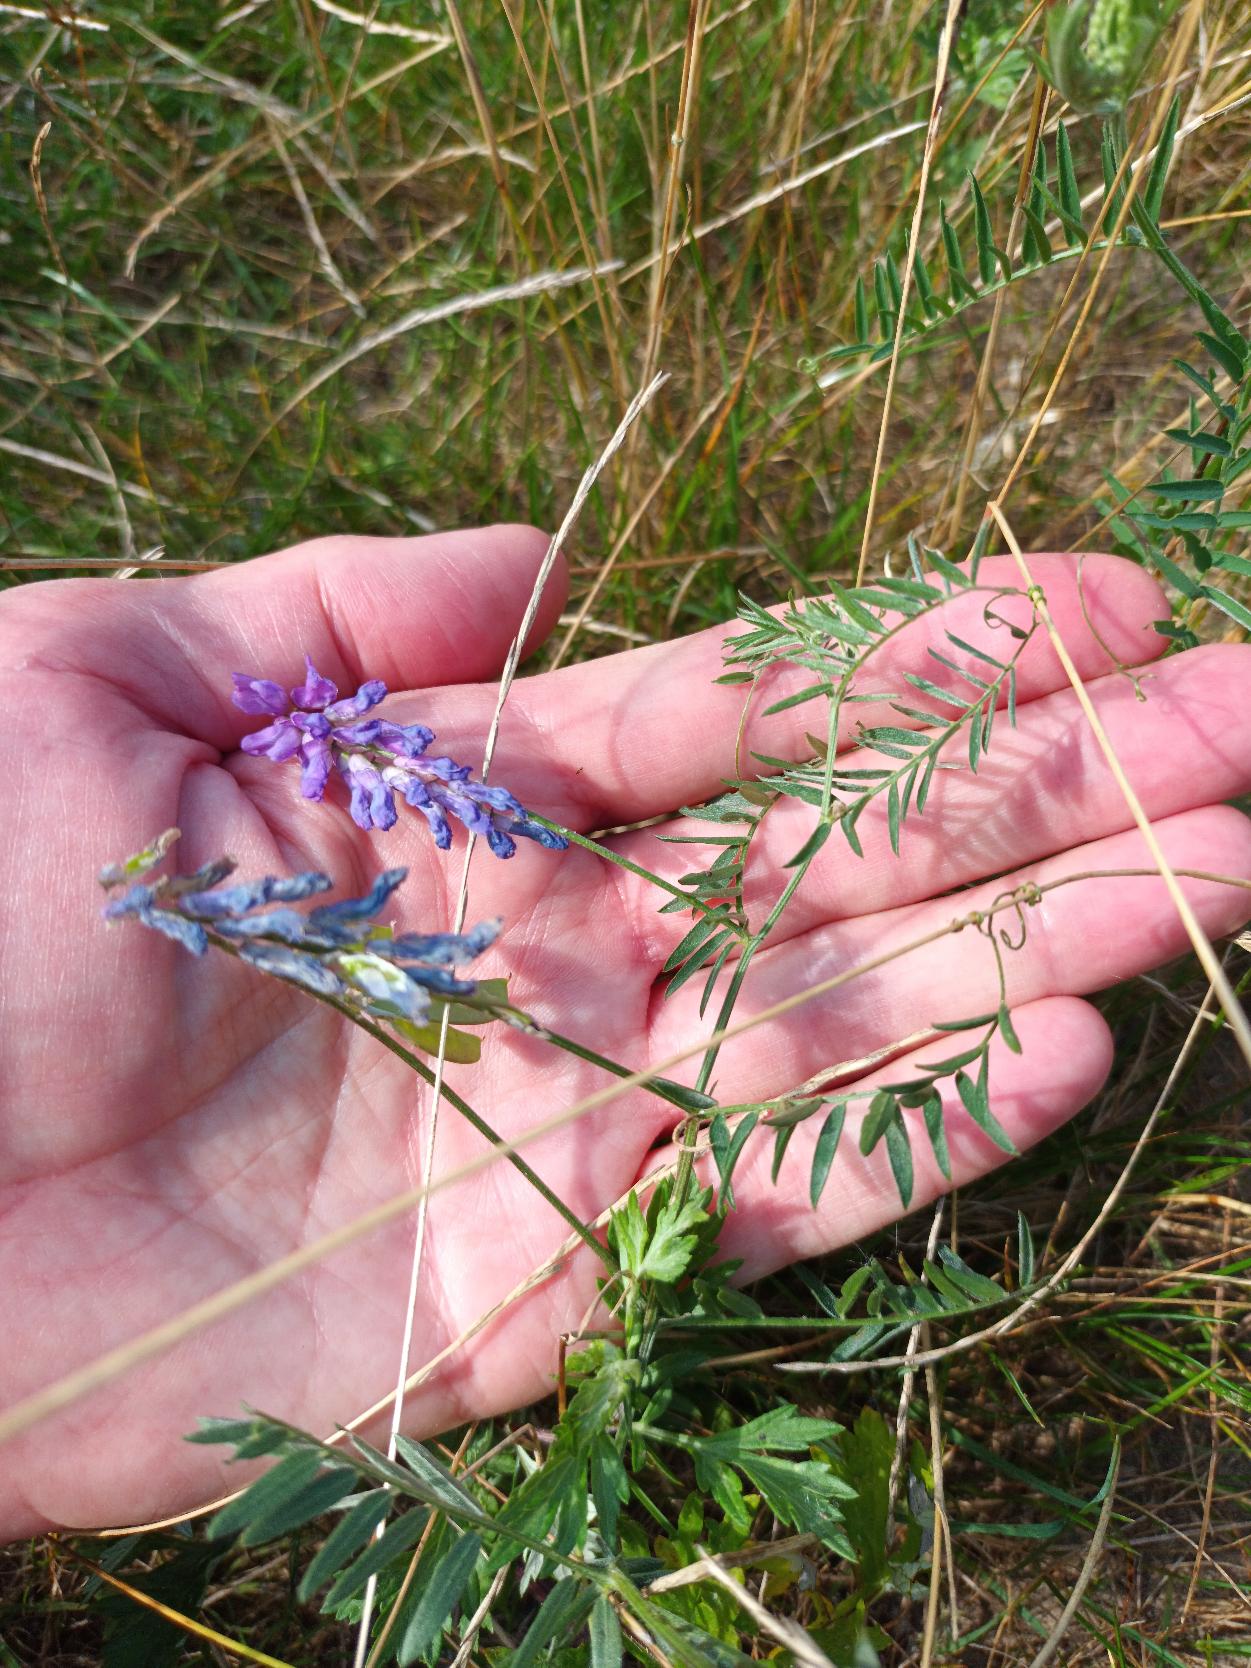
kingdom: Plantae
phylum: Tracheophyta
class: Magnoliopsida
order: Fabales
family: Fabaceae
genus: Vicia
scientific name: Vicia cracca
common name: Muse-vikke
